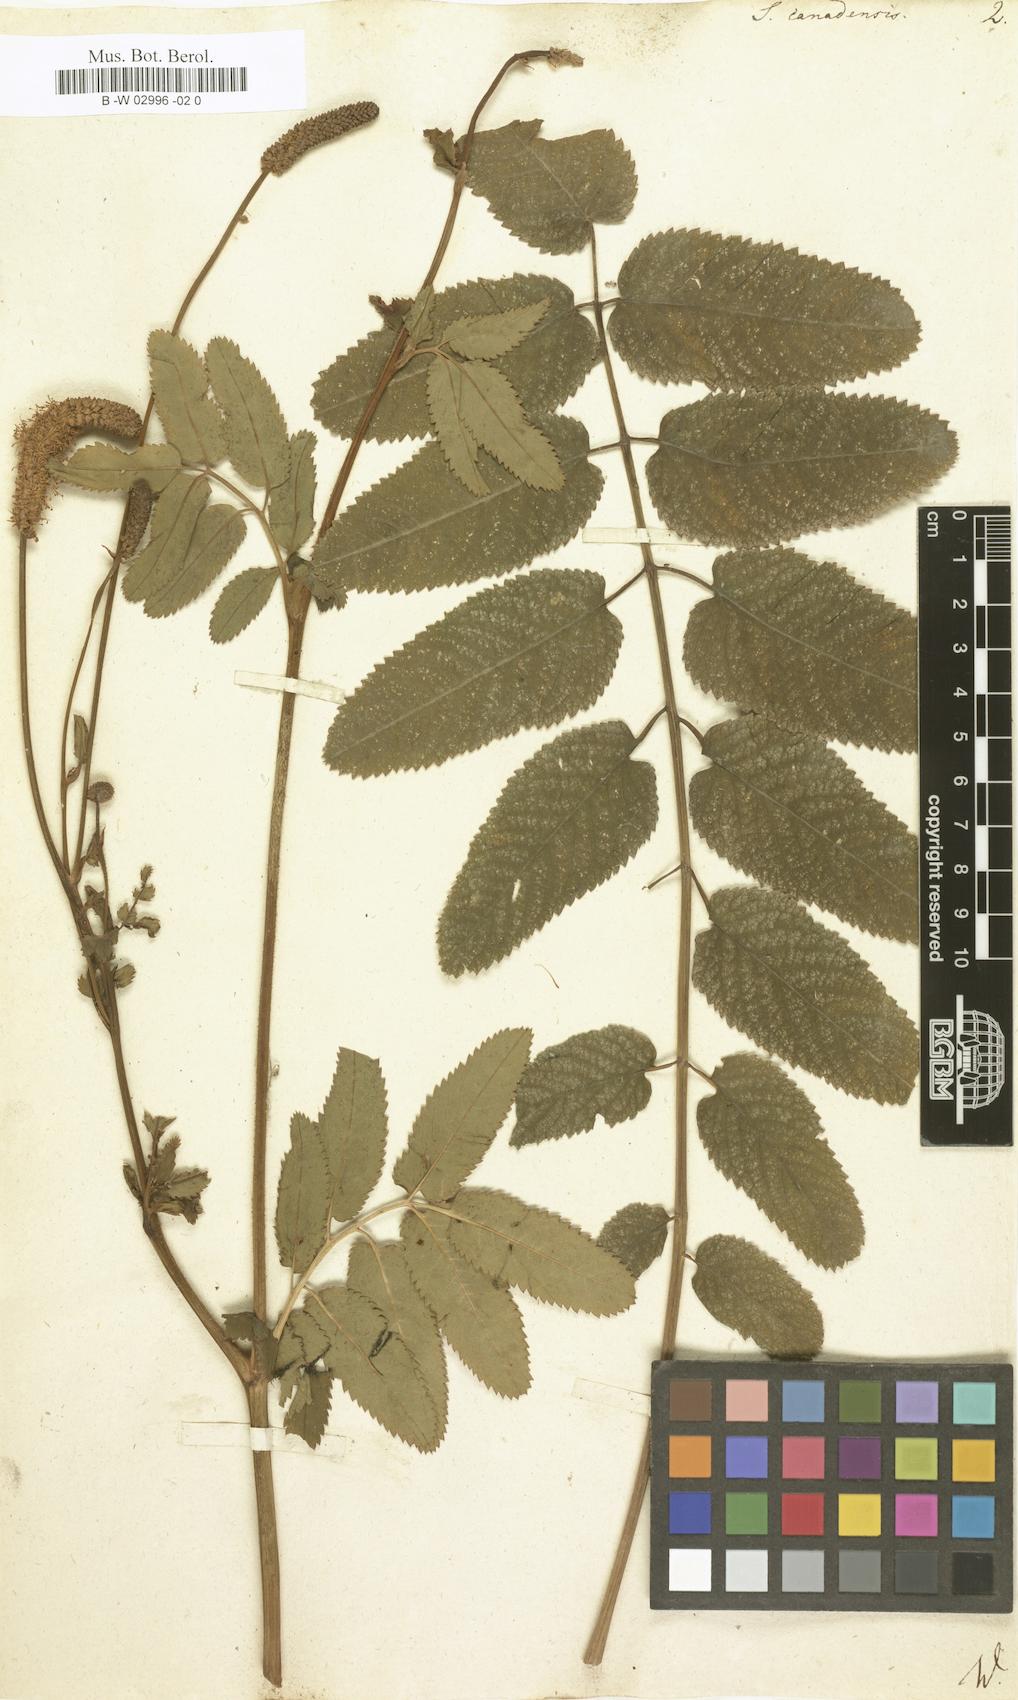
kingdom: Plantae
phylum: Tracheophyta
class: Magnoliopsida
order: Rosales
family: Rosaceae
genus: Sanguisorba
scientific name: Sanguisorba canadensis
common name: White burnet
